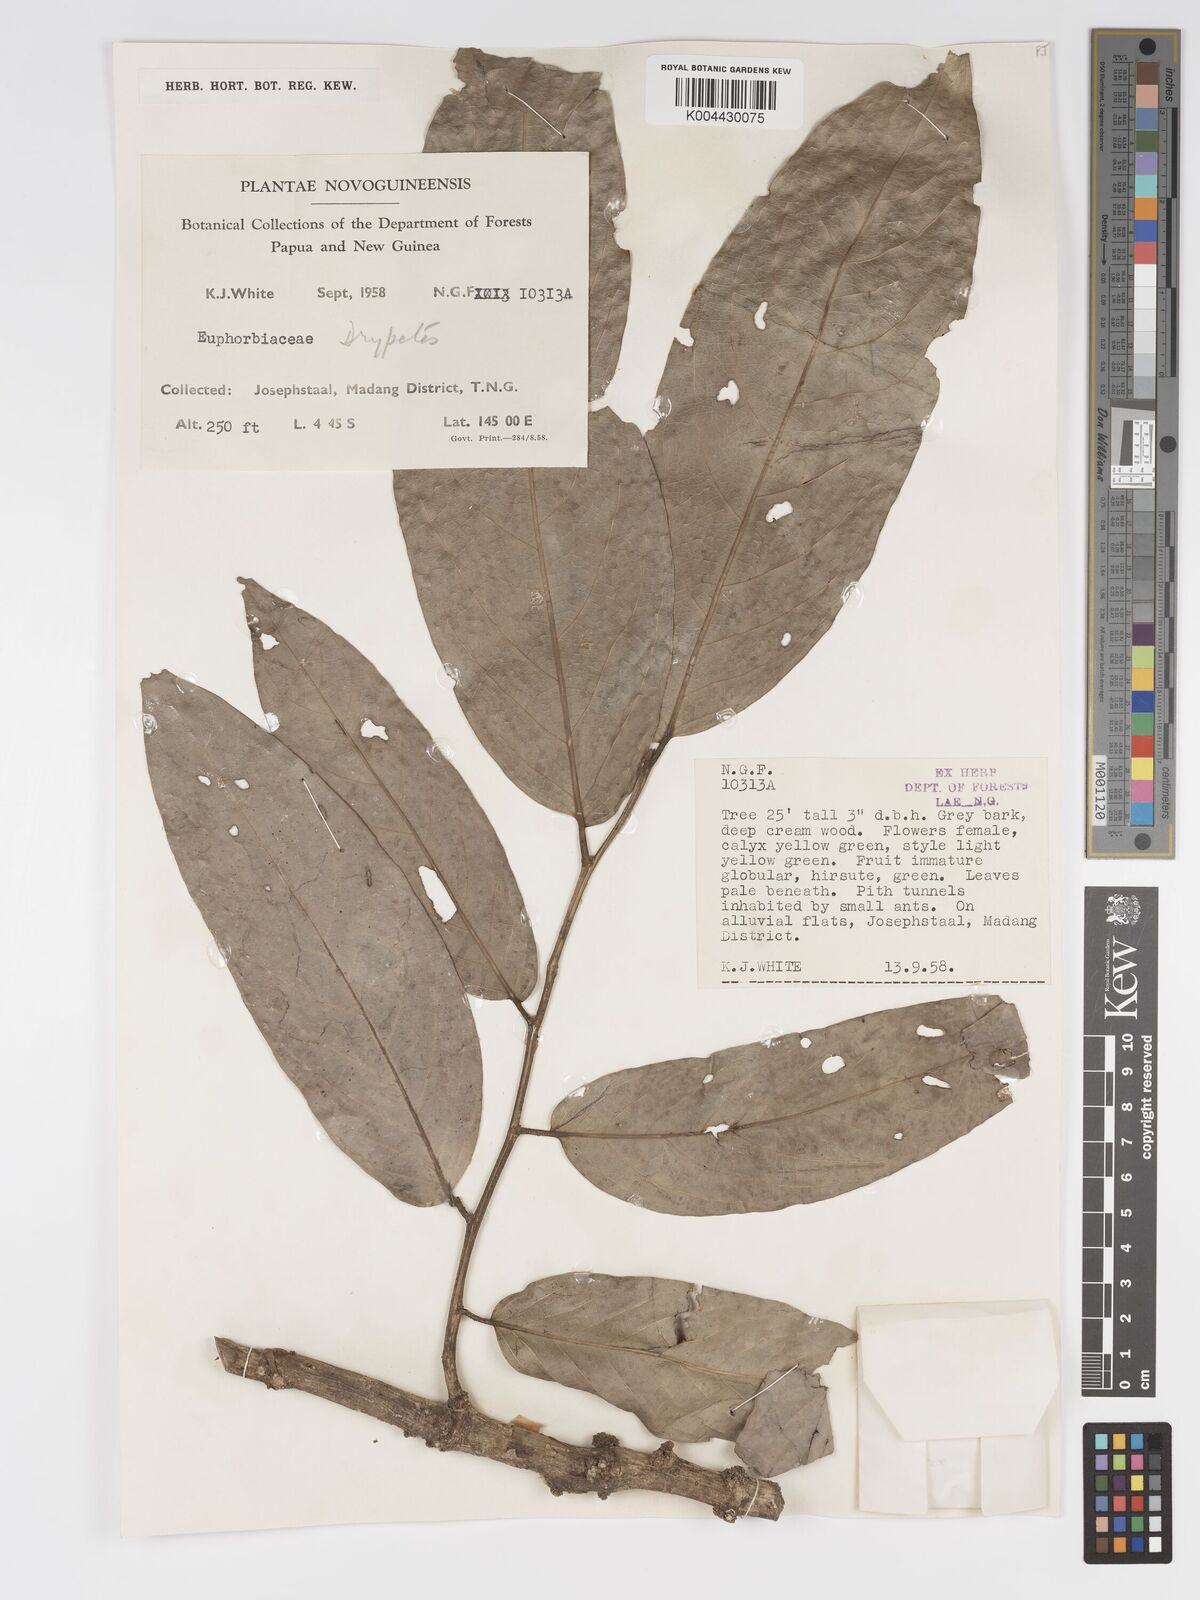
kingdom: Plantae
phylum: Tracheophyta
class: Magnoliopsida
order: Malpighiales
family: Putranjivaceae
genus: Drypetes
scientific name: Drypetes longifolia
